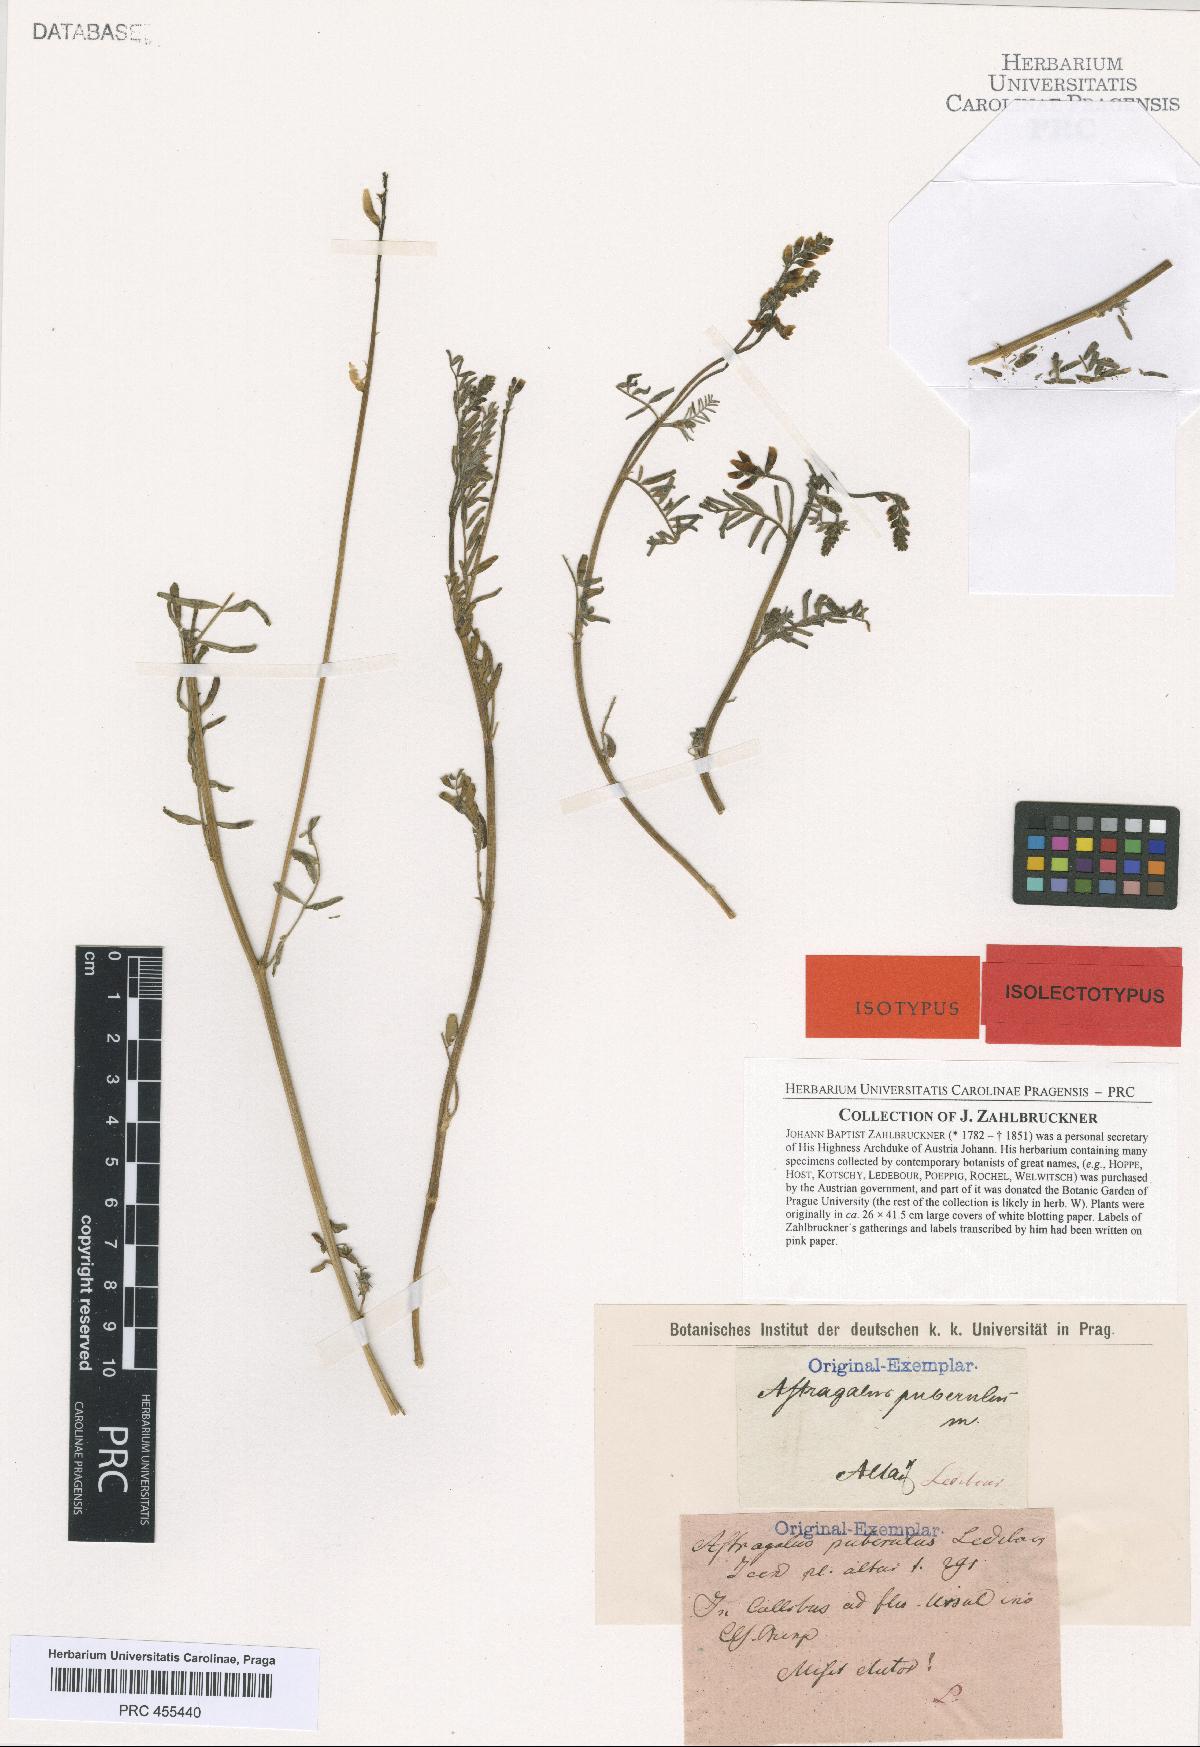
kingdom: Plantae
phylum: Tracheophyta
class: Magnoliopsida
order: Fabales
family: Fabaceae
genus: Astragalus
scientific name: Astragalus puberulus
